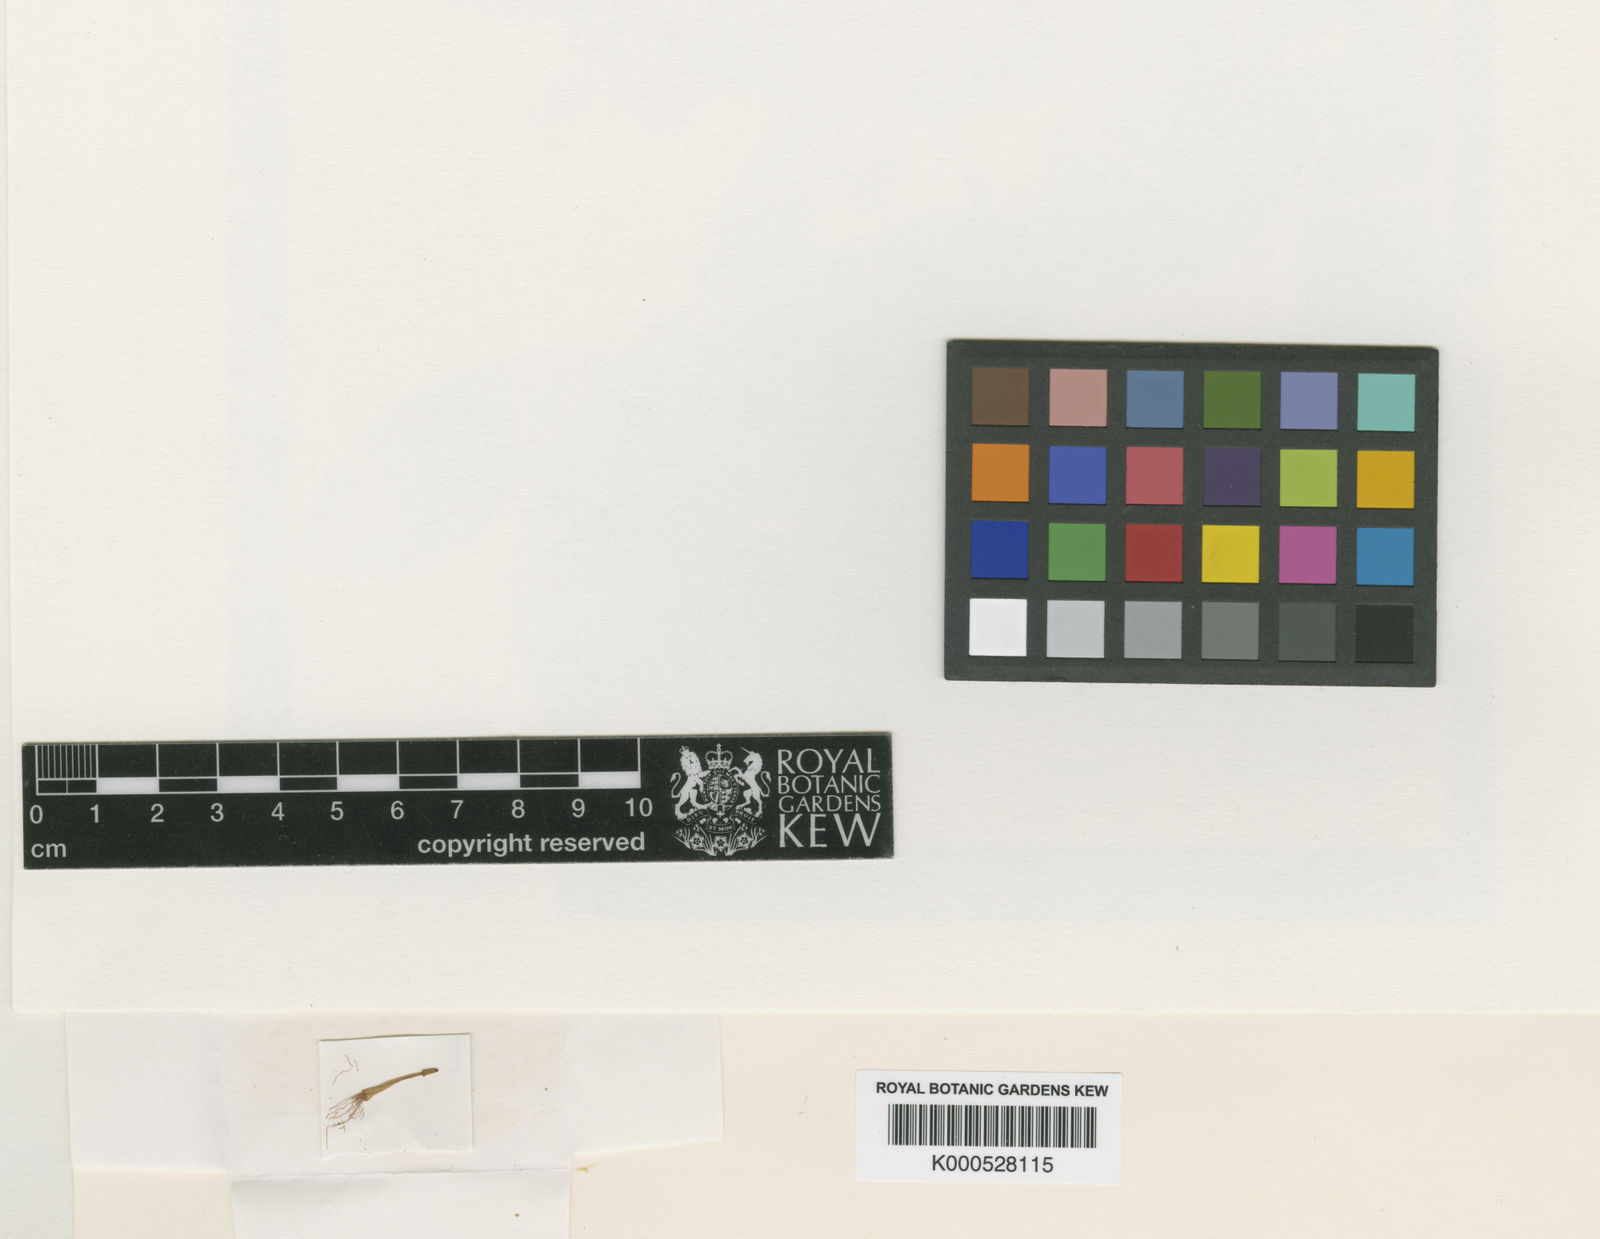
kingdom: Plantae
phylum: Tracheophyta
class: Magnoliopsida
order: Fabales
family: Fabaceae
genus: Cojoba
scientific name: Cojoba catenata
